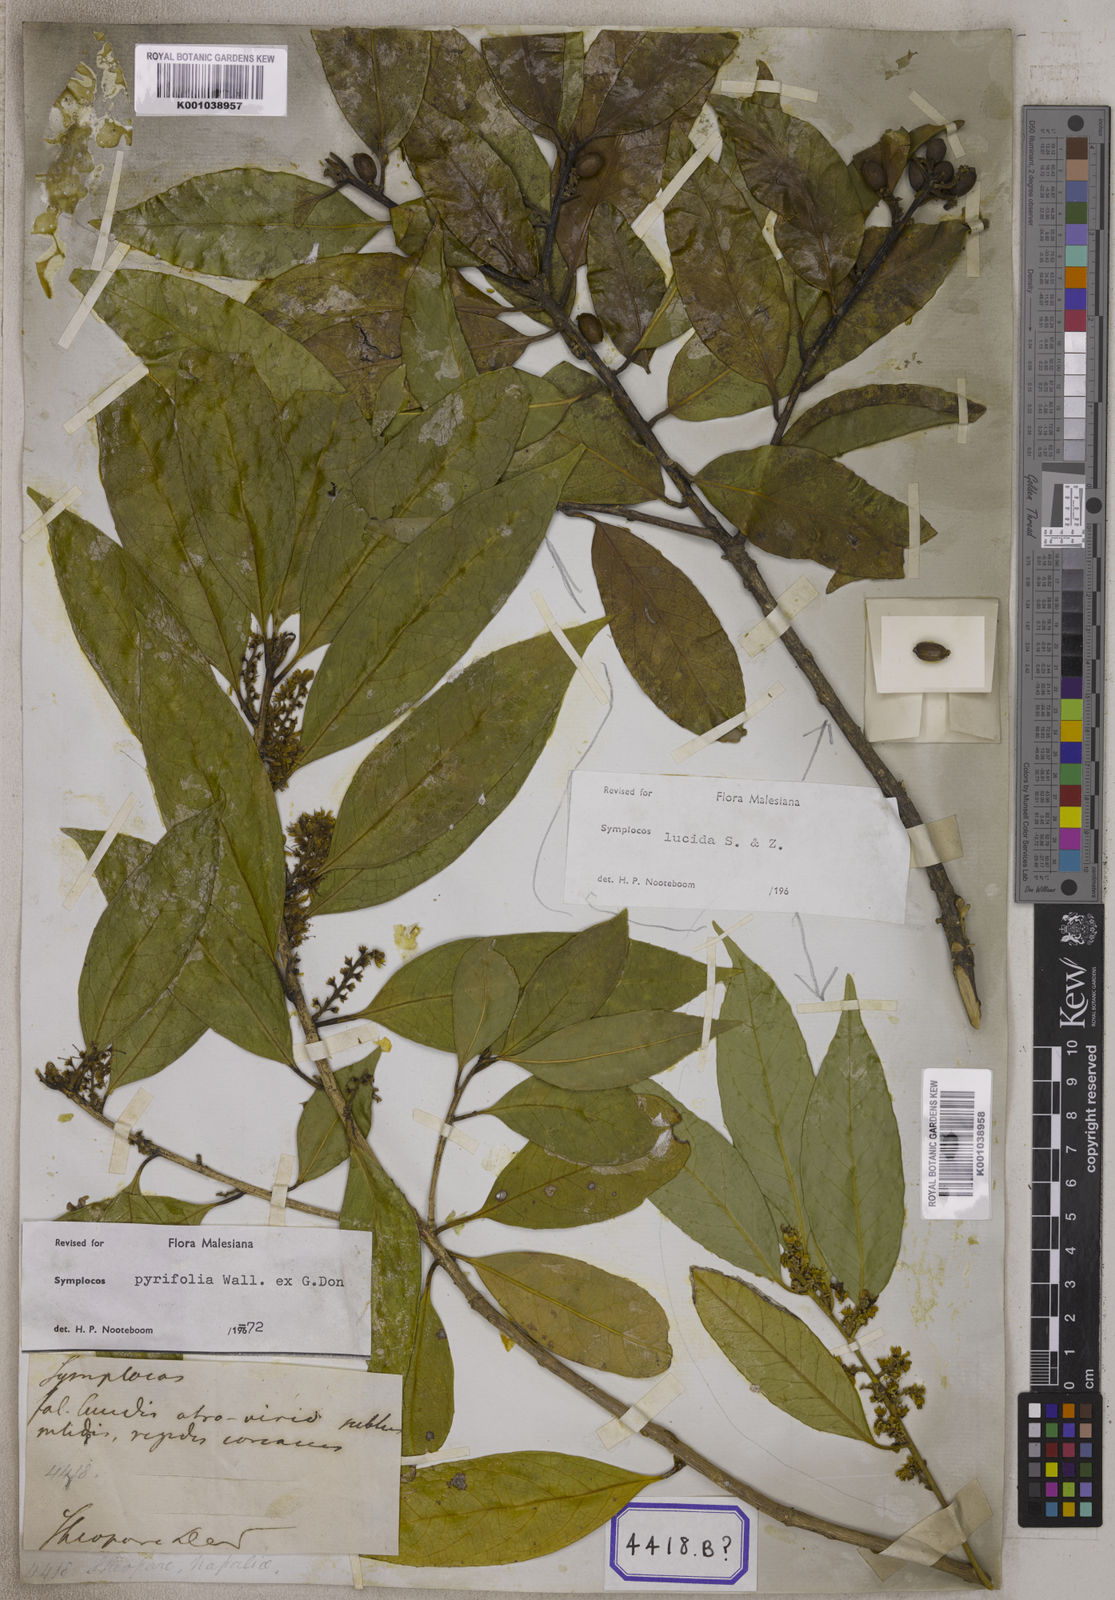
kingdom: Plantae
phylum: Tracheophyta
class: Magnoliopsida
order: Ericales
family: Symplocaceae
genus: Symplocos
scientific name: Symplocos racemosa
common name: Lodhtree
